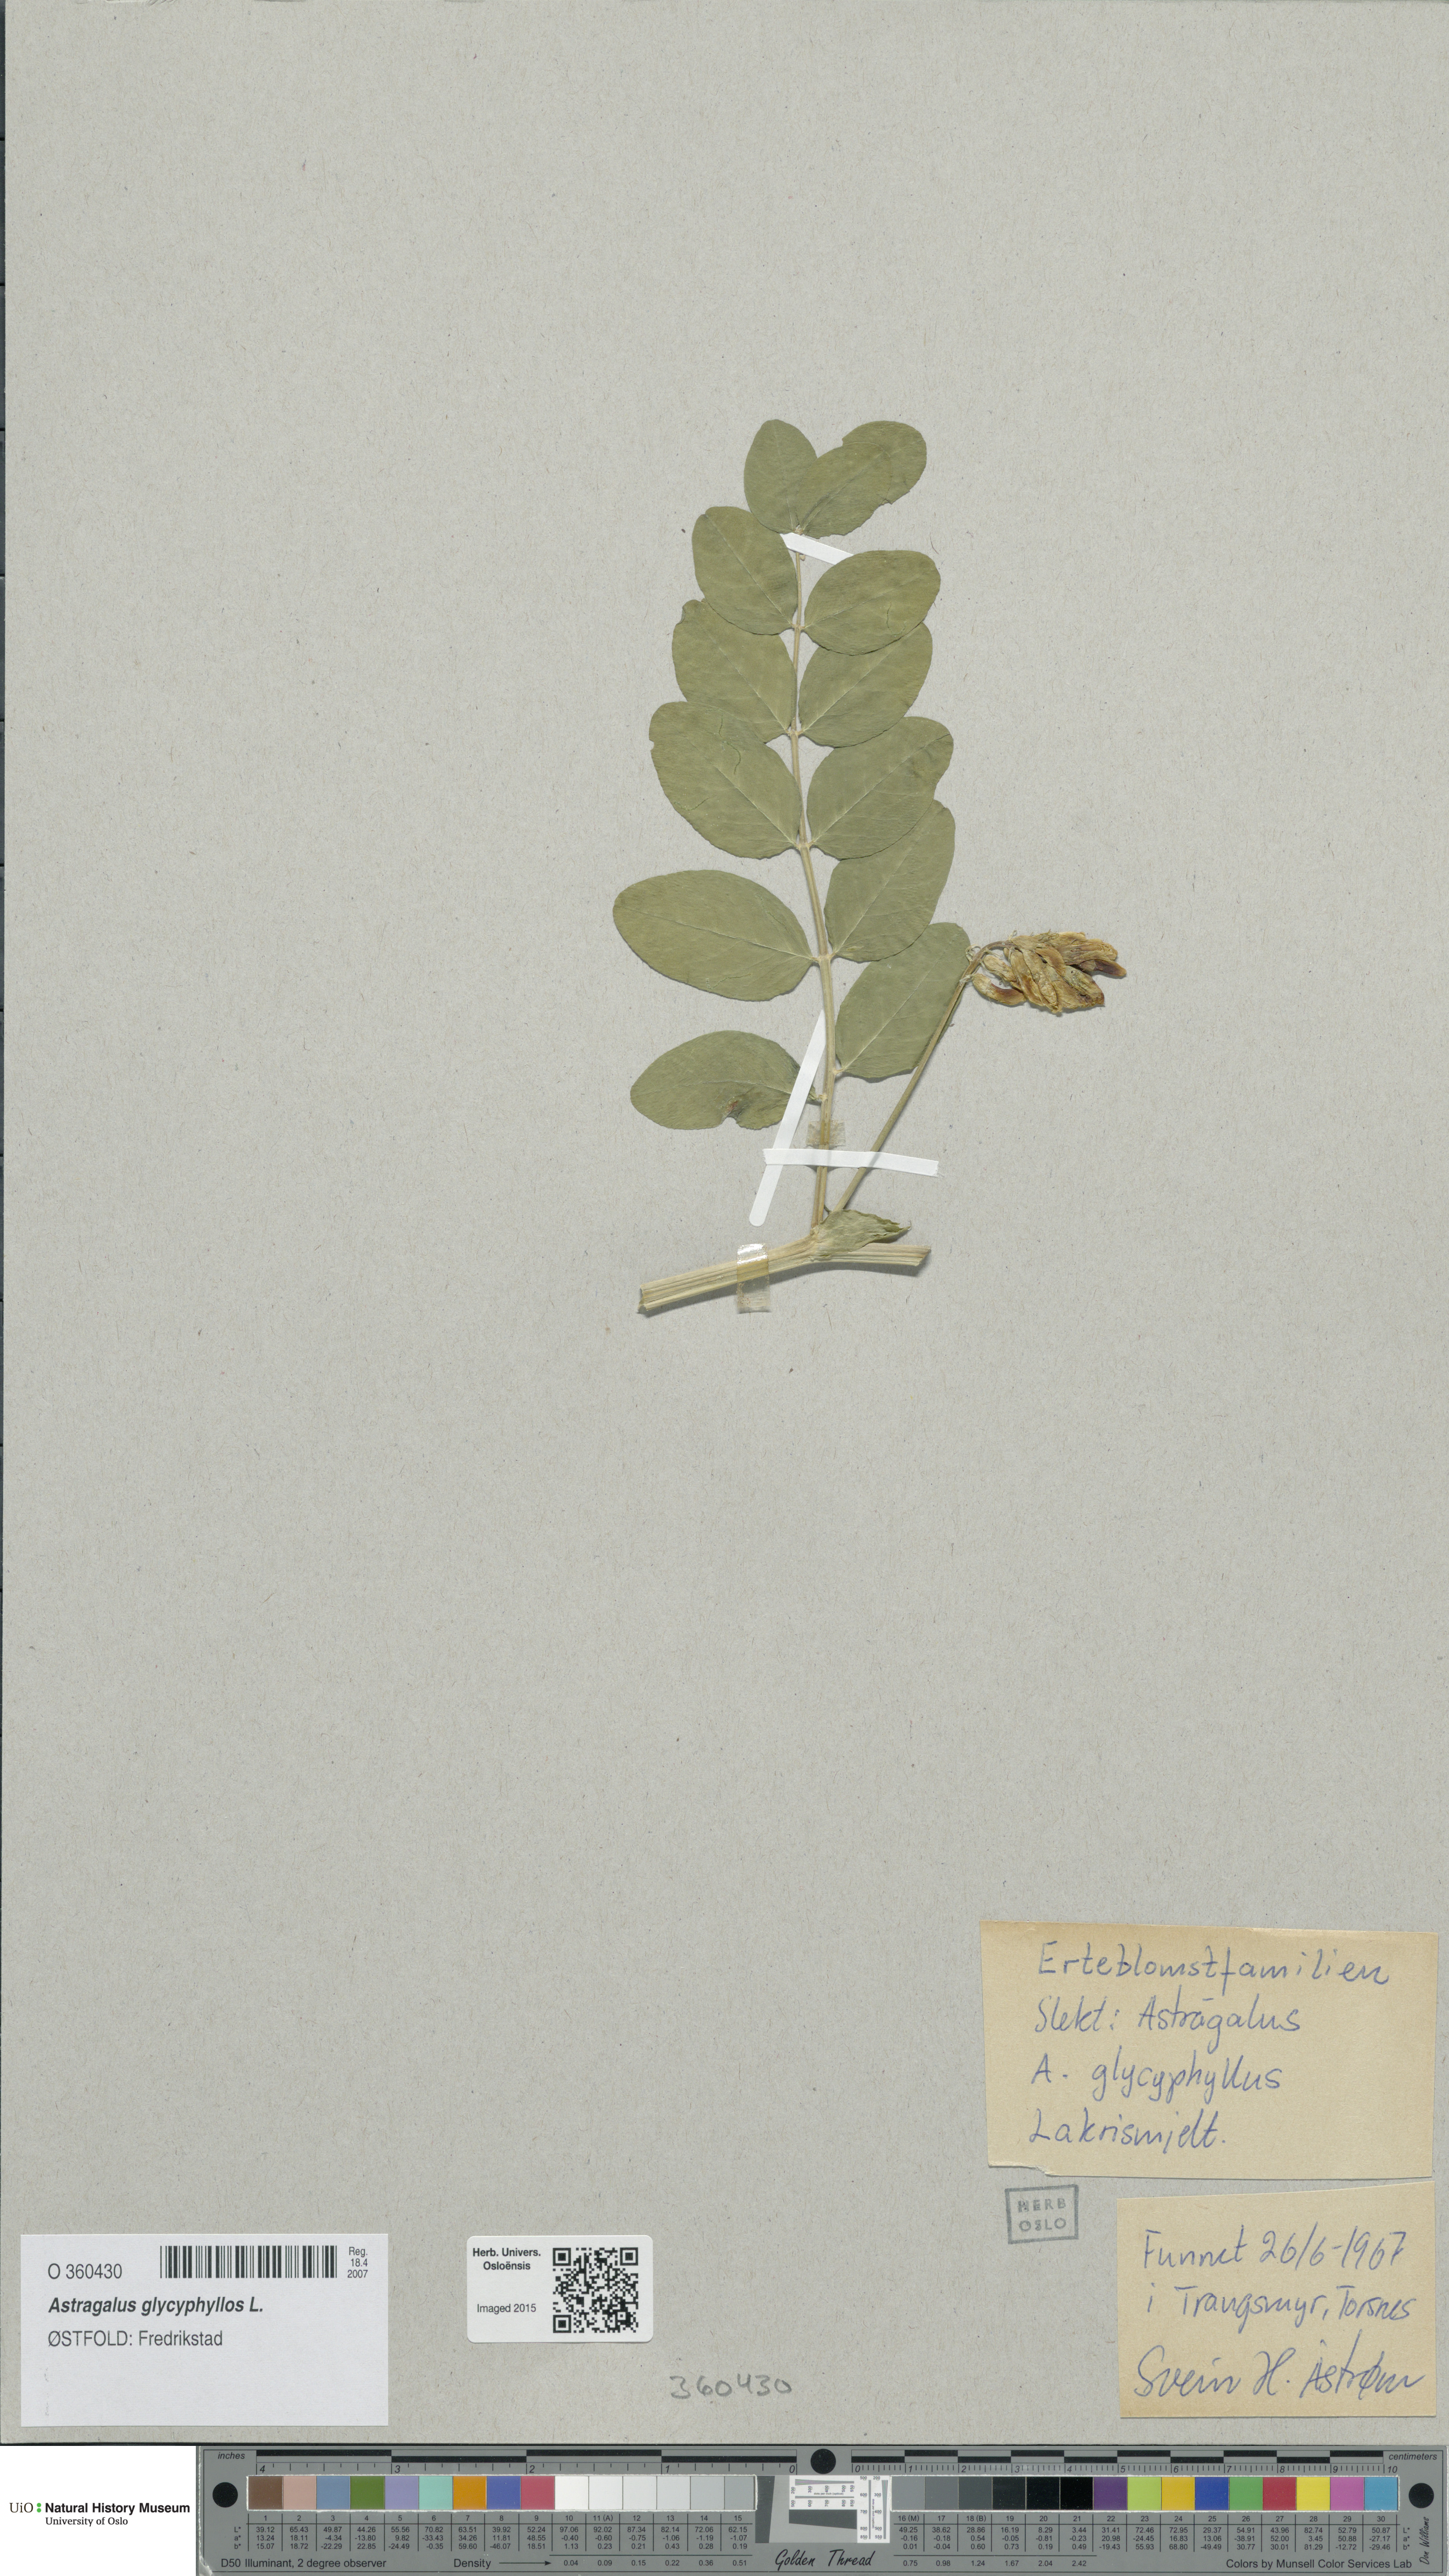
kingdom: Plantae
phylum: Tracheophyta
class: Magnoliopsida
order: Fabales
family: Fabaceae
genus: Astragalus
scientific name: Astragalus glycyphyllos
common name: Wild liquorice
